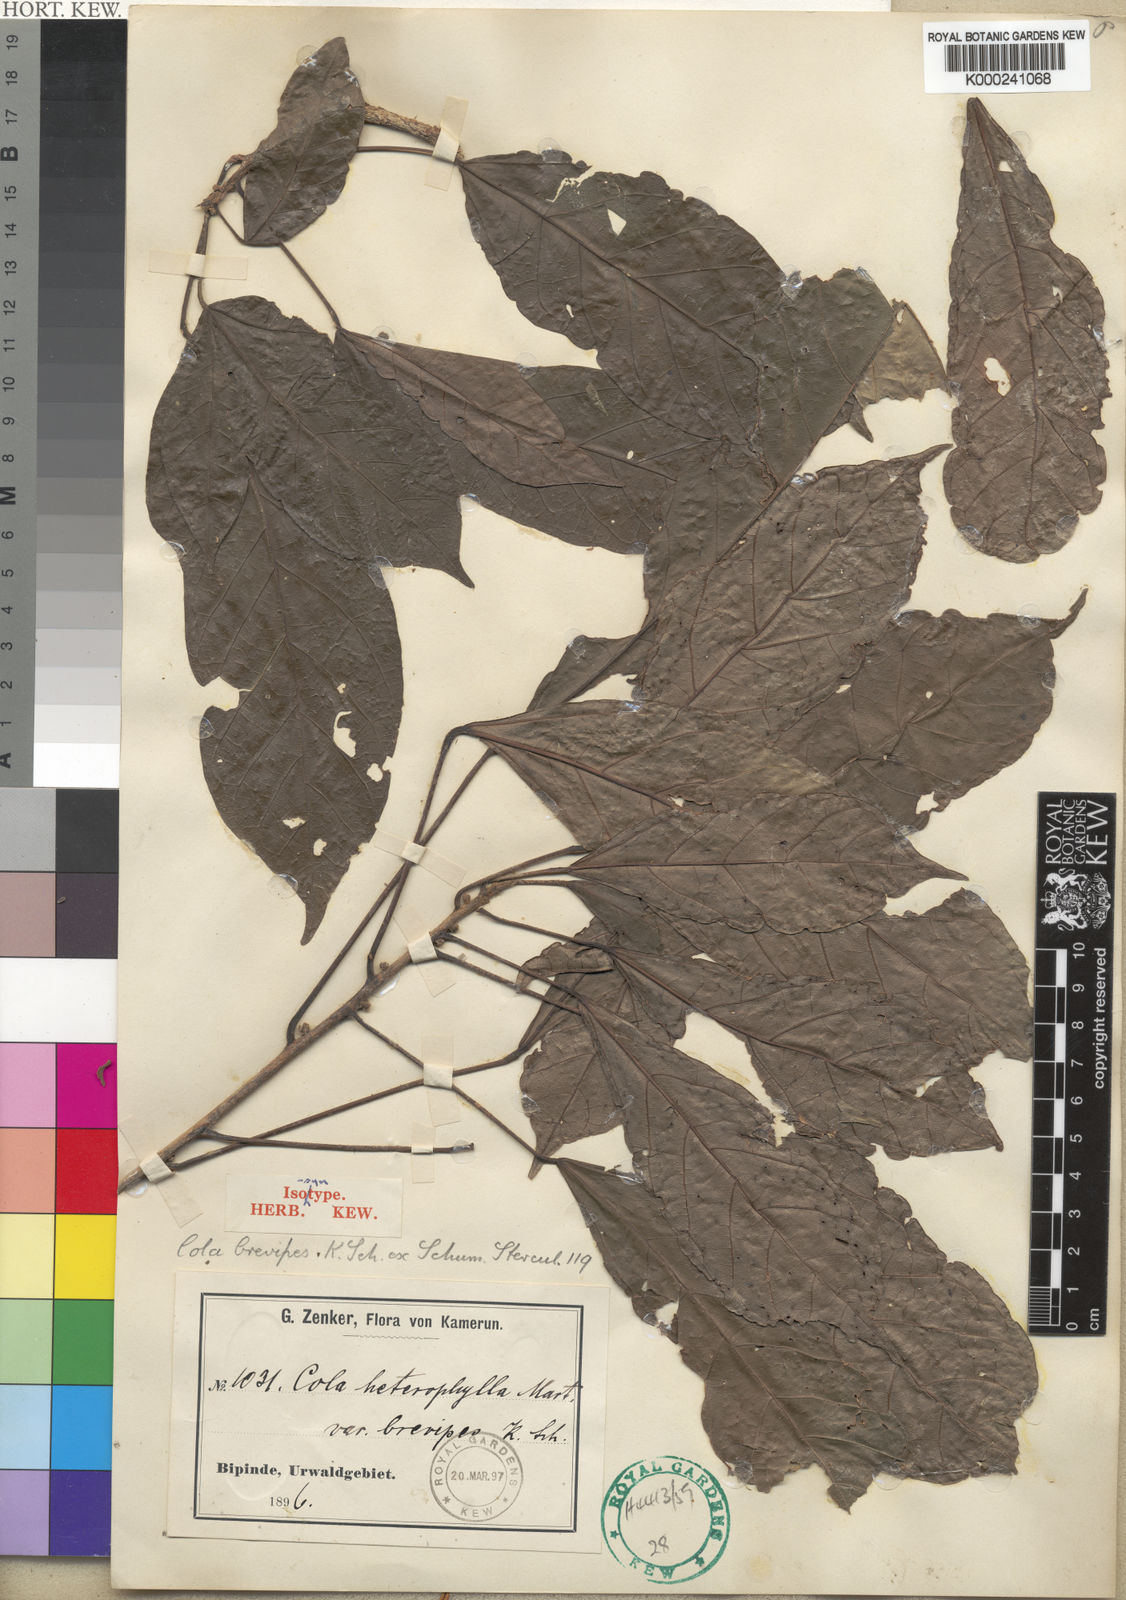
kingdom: Plantae
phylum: Tracheophyta
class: Magnoliopsida
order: Malvales
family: Malvaceae
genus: Cola
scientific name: Cola brevipes
